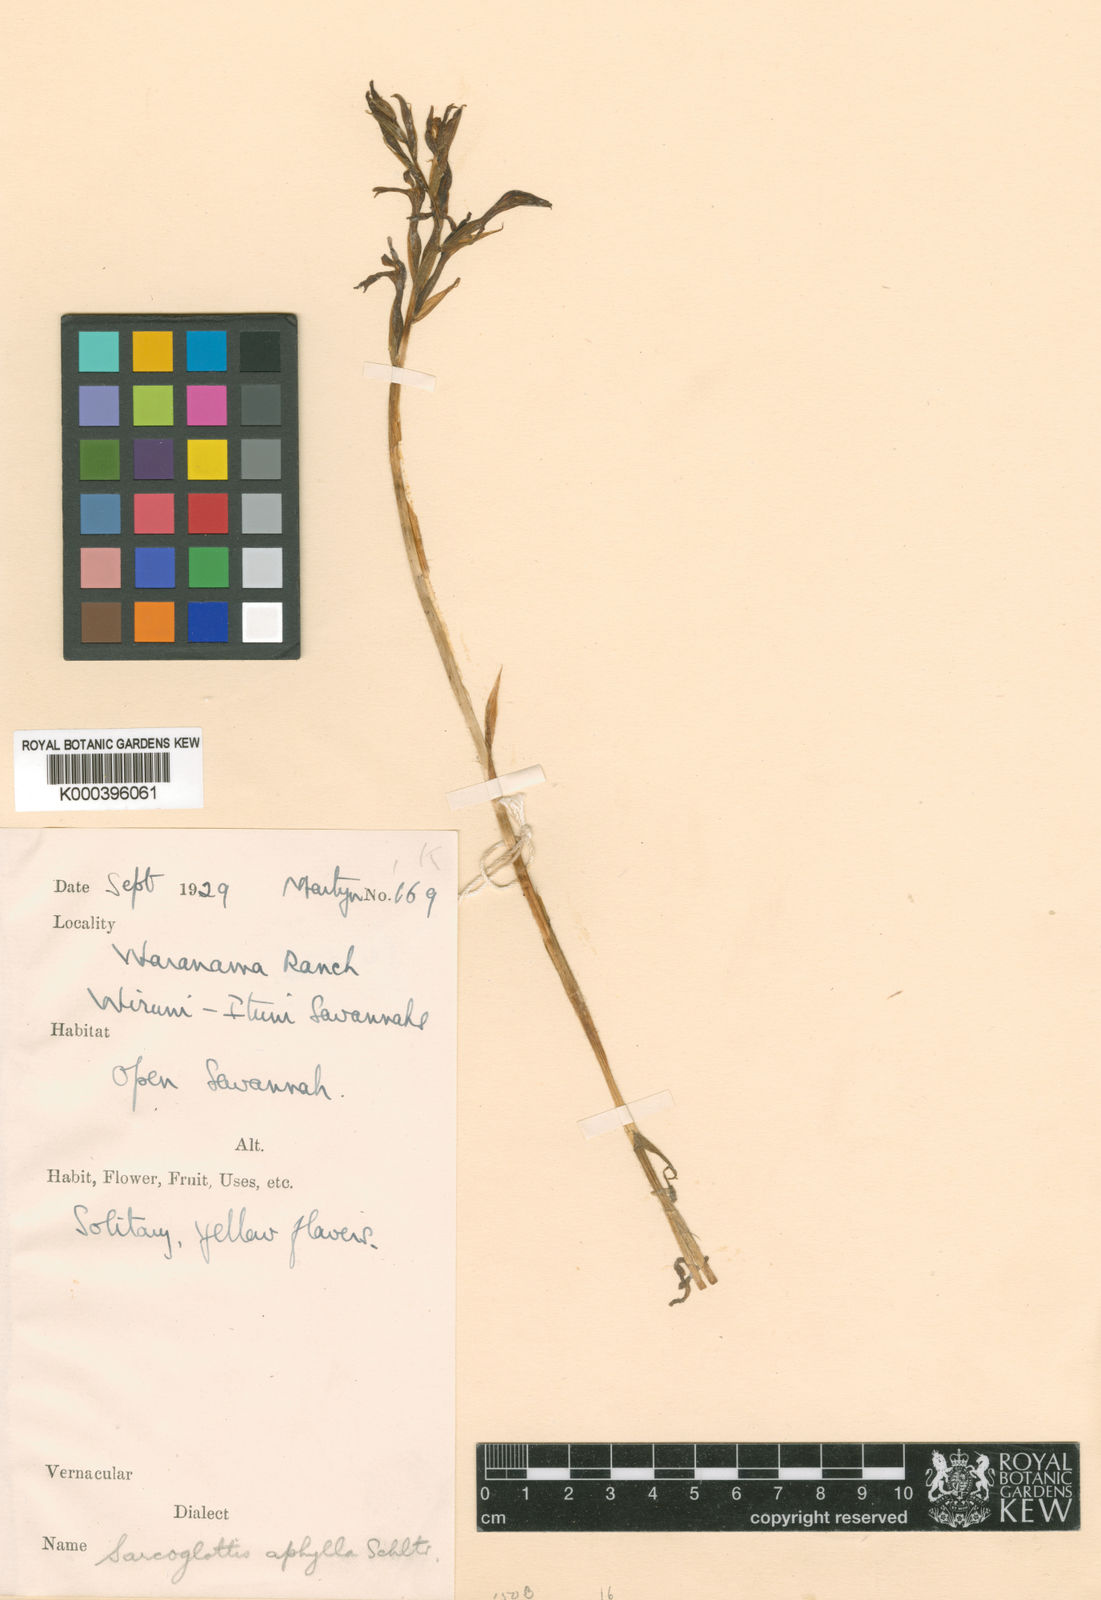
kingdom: Plantae
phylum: Tracheophyta
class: Liliopsida
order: Asparagales
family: Orchidaceae
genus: Veyretia
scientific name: Veyretia aphylla
